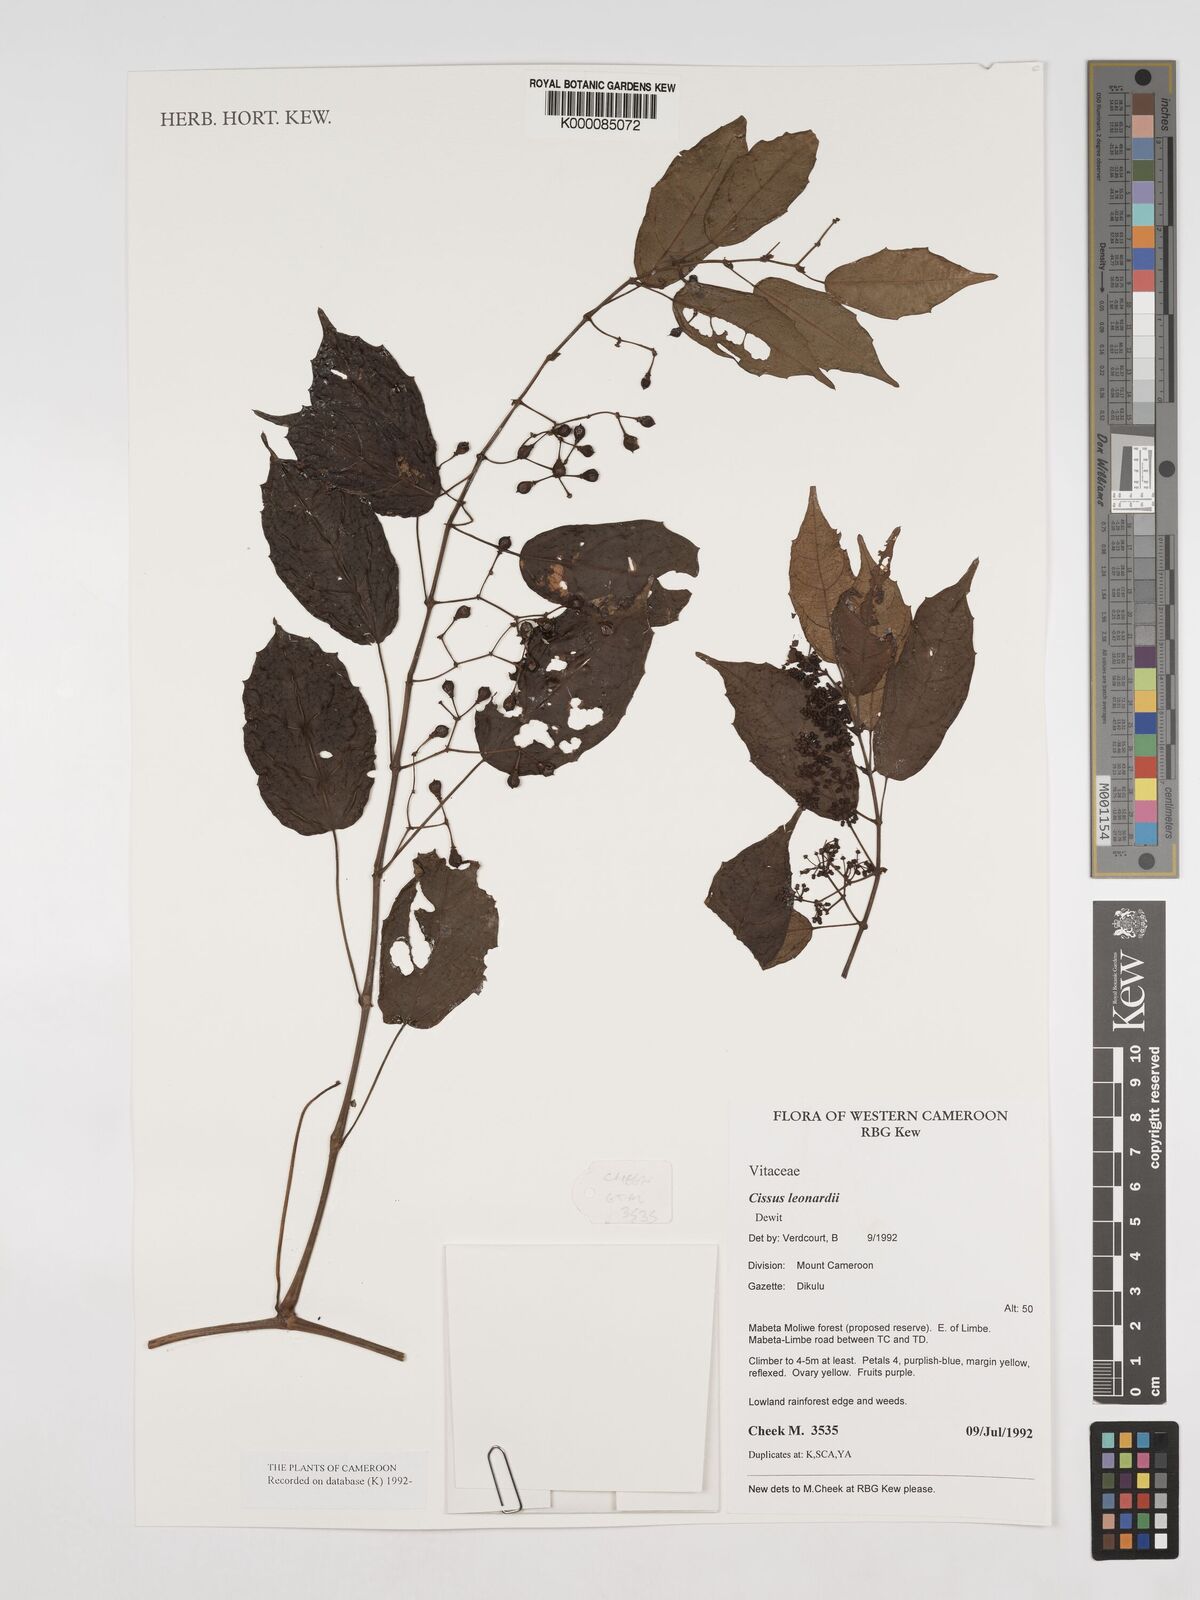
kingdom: Plantae
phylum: Tracheophyta
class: Magnoliopsida
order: Vitales
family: Vitaceae
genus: Cissus
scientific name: Cissus leonardii
